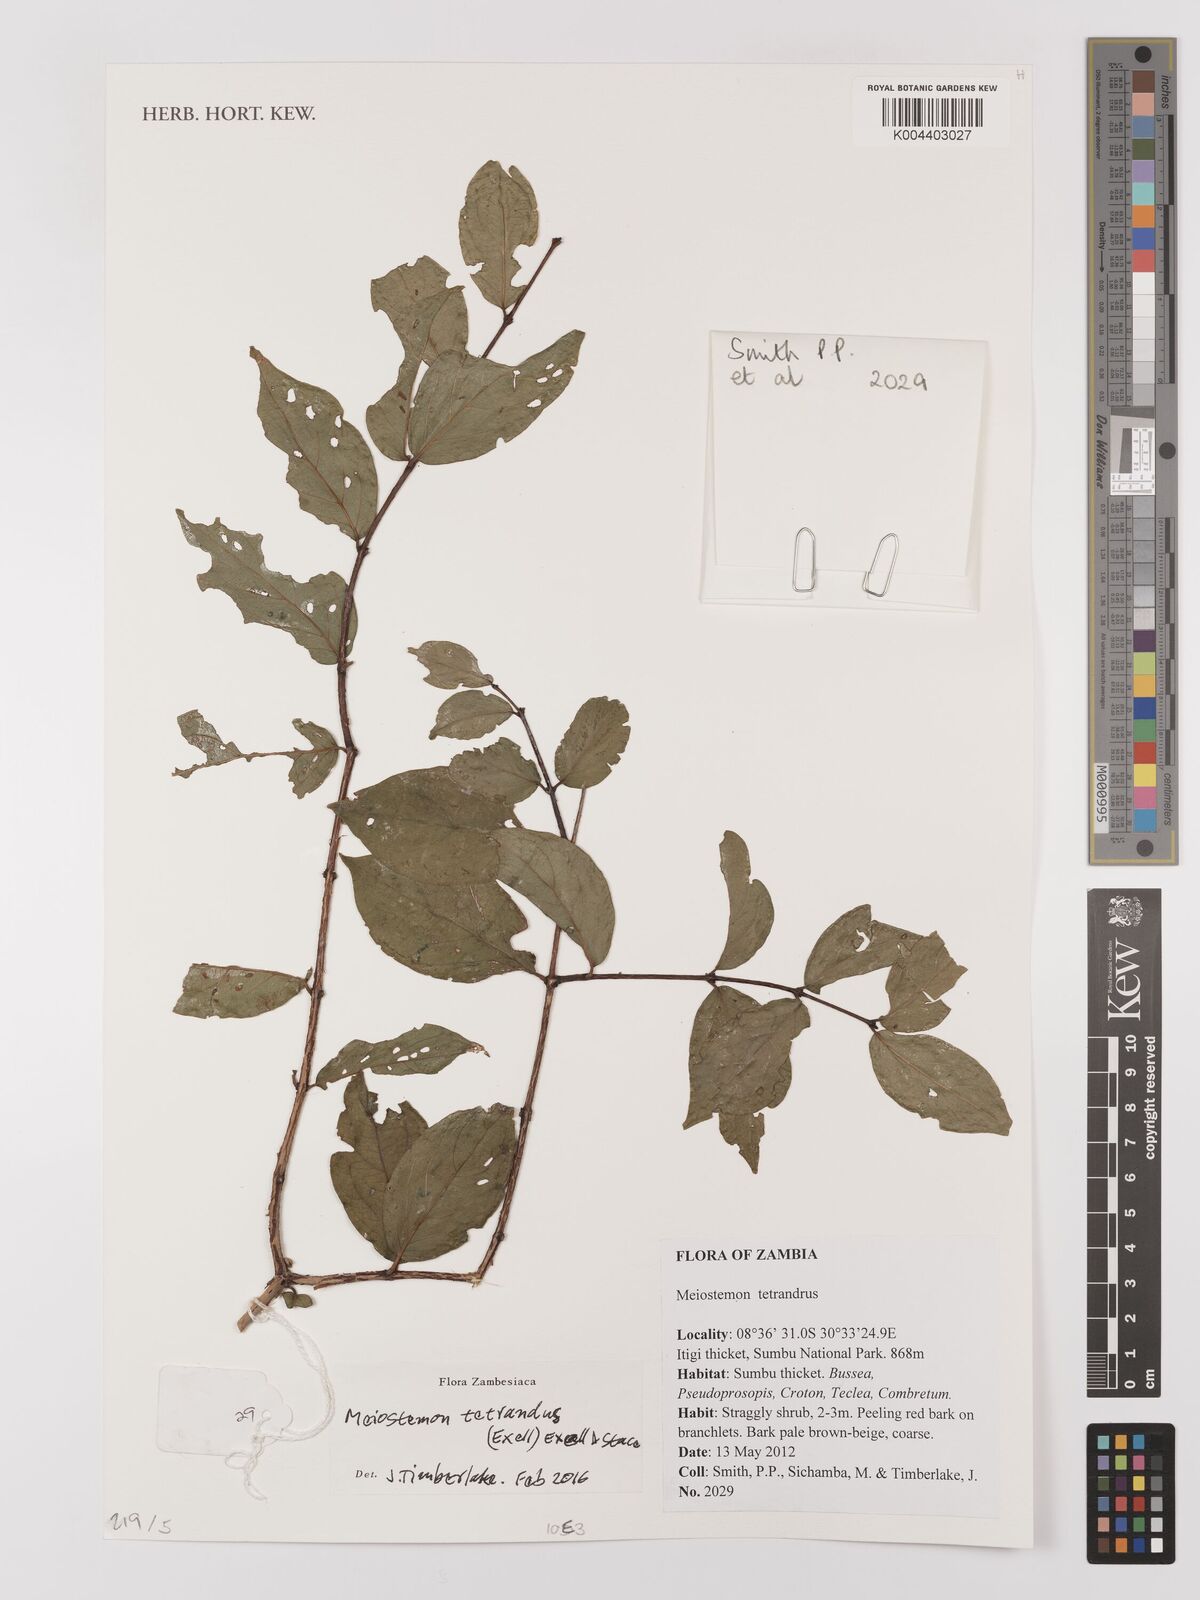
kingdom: Plantae
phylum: Tracheophyta
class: Magnoliopsida
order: Myrtales
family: Combretaceae
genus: Combretum
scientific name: Combretum tetrandrum
